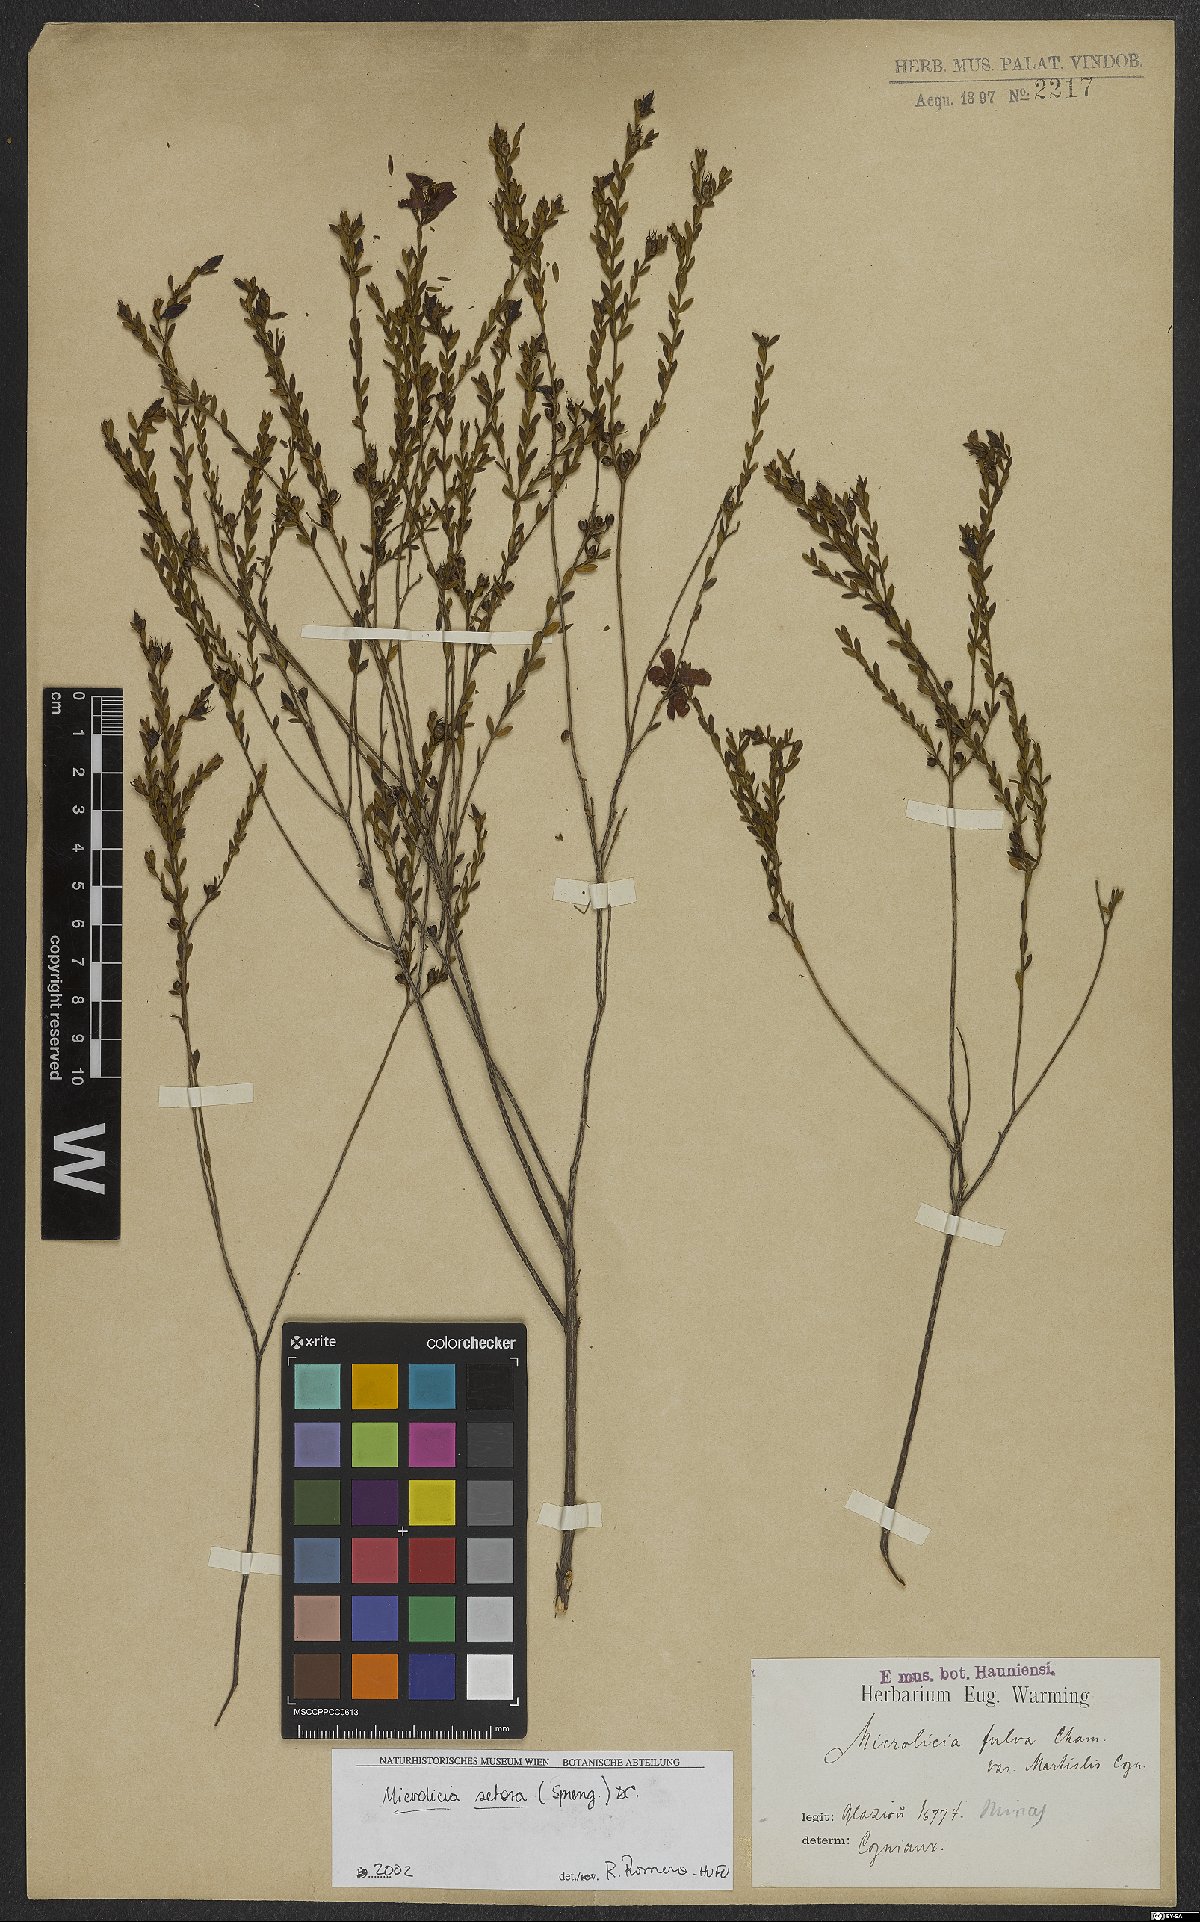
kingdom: Plantae
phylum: Tracheophyta
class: Magnoliopsida
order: Myrtales
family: Melastomataceae
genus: Microlicia
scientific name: Microlicia setosa
